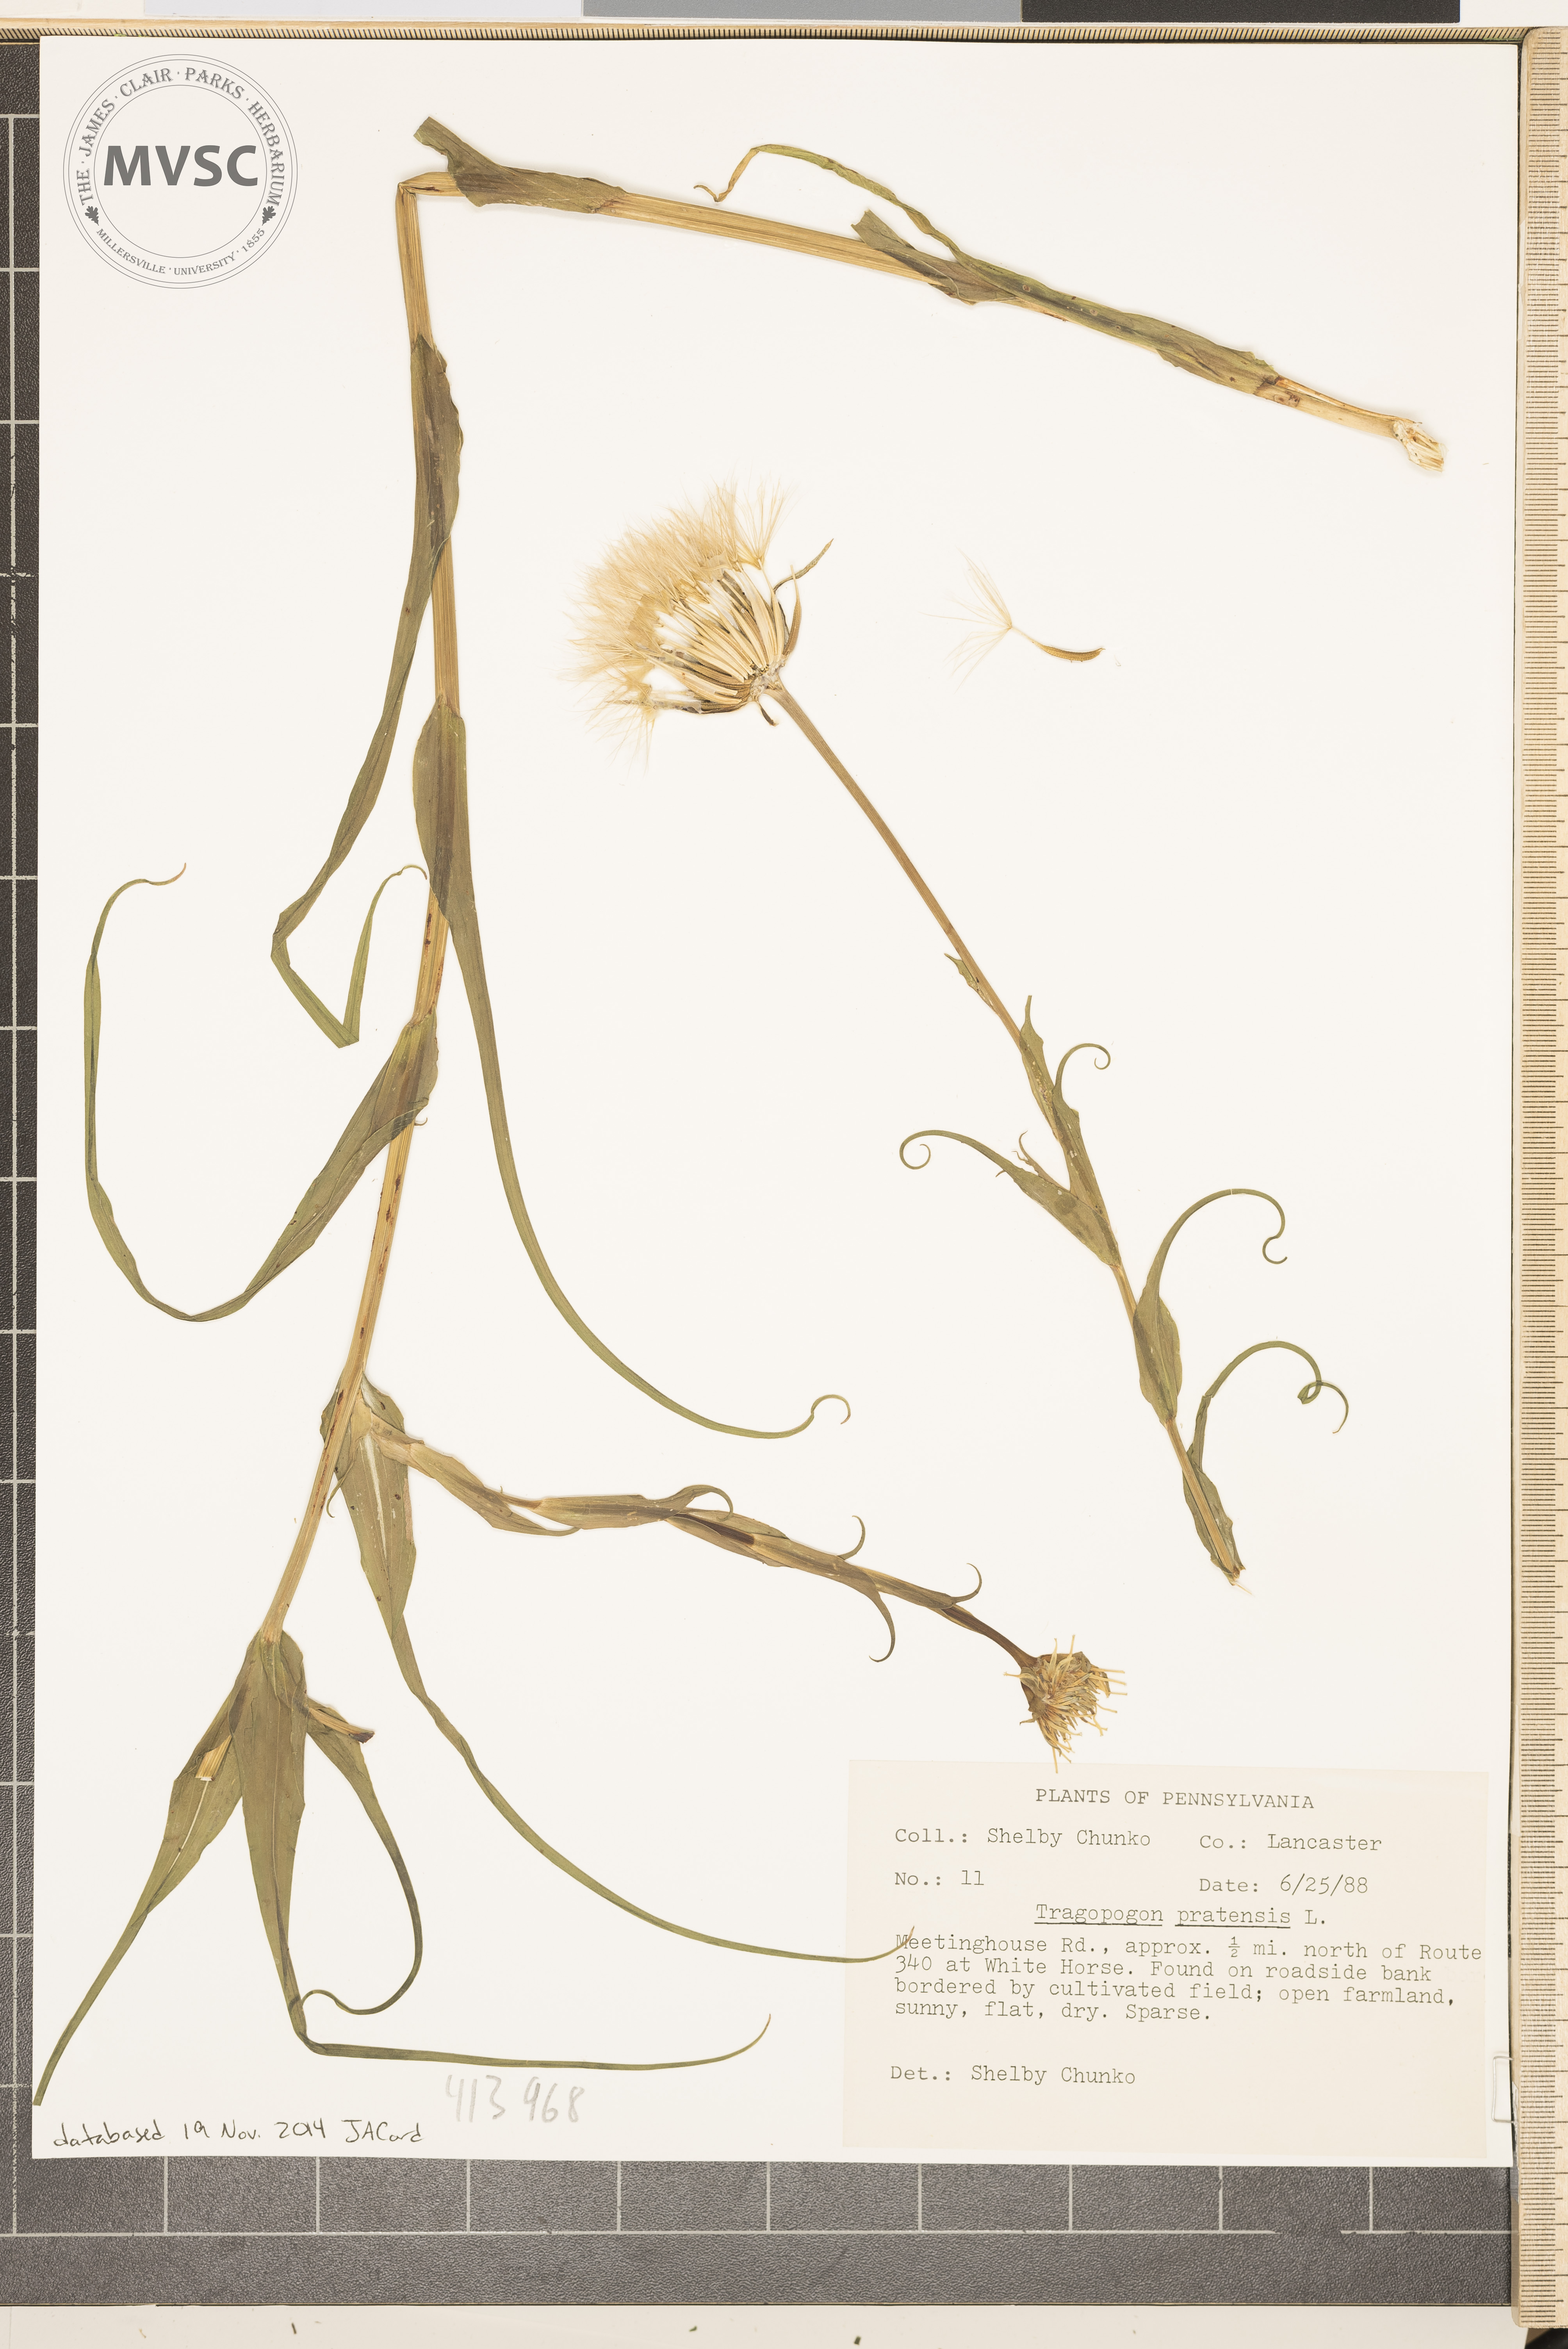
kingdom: Plantae
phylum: Tracheophyta
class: Magnoliopsida
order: Asterales
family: Asteraceae
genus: Tragopogon
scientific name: Tragopogon pratensis
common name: Goat's-beard
